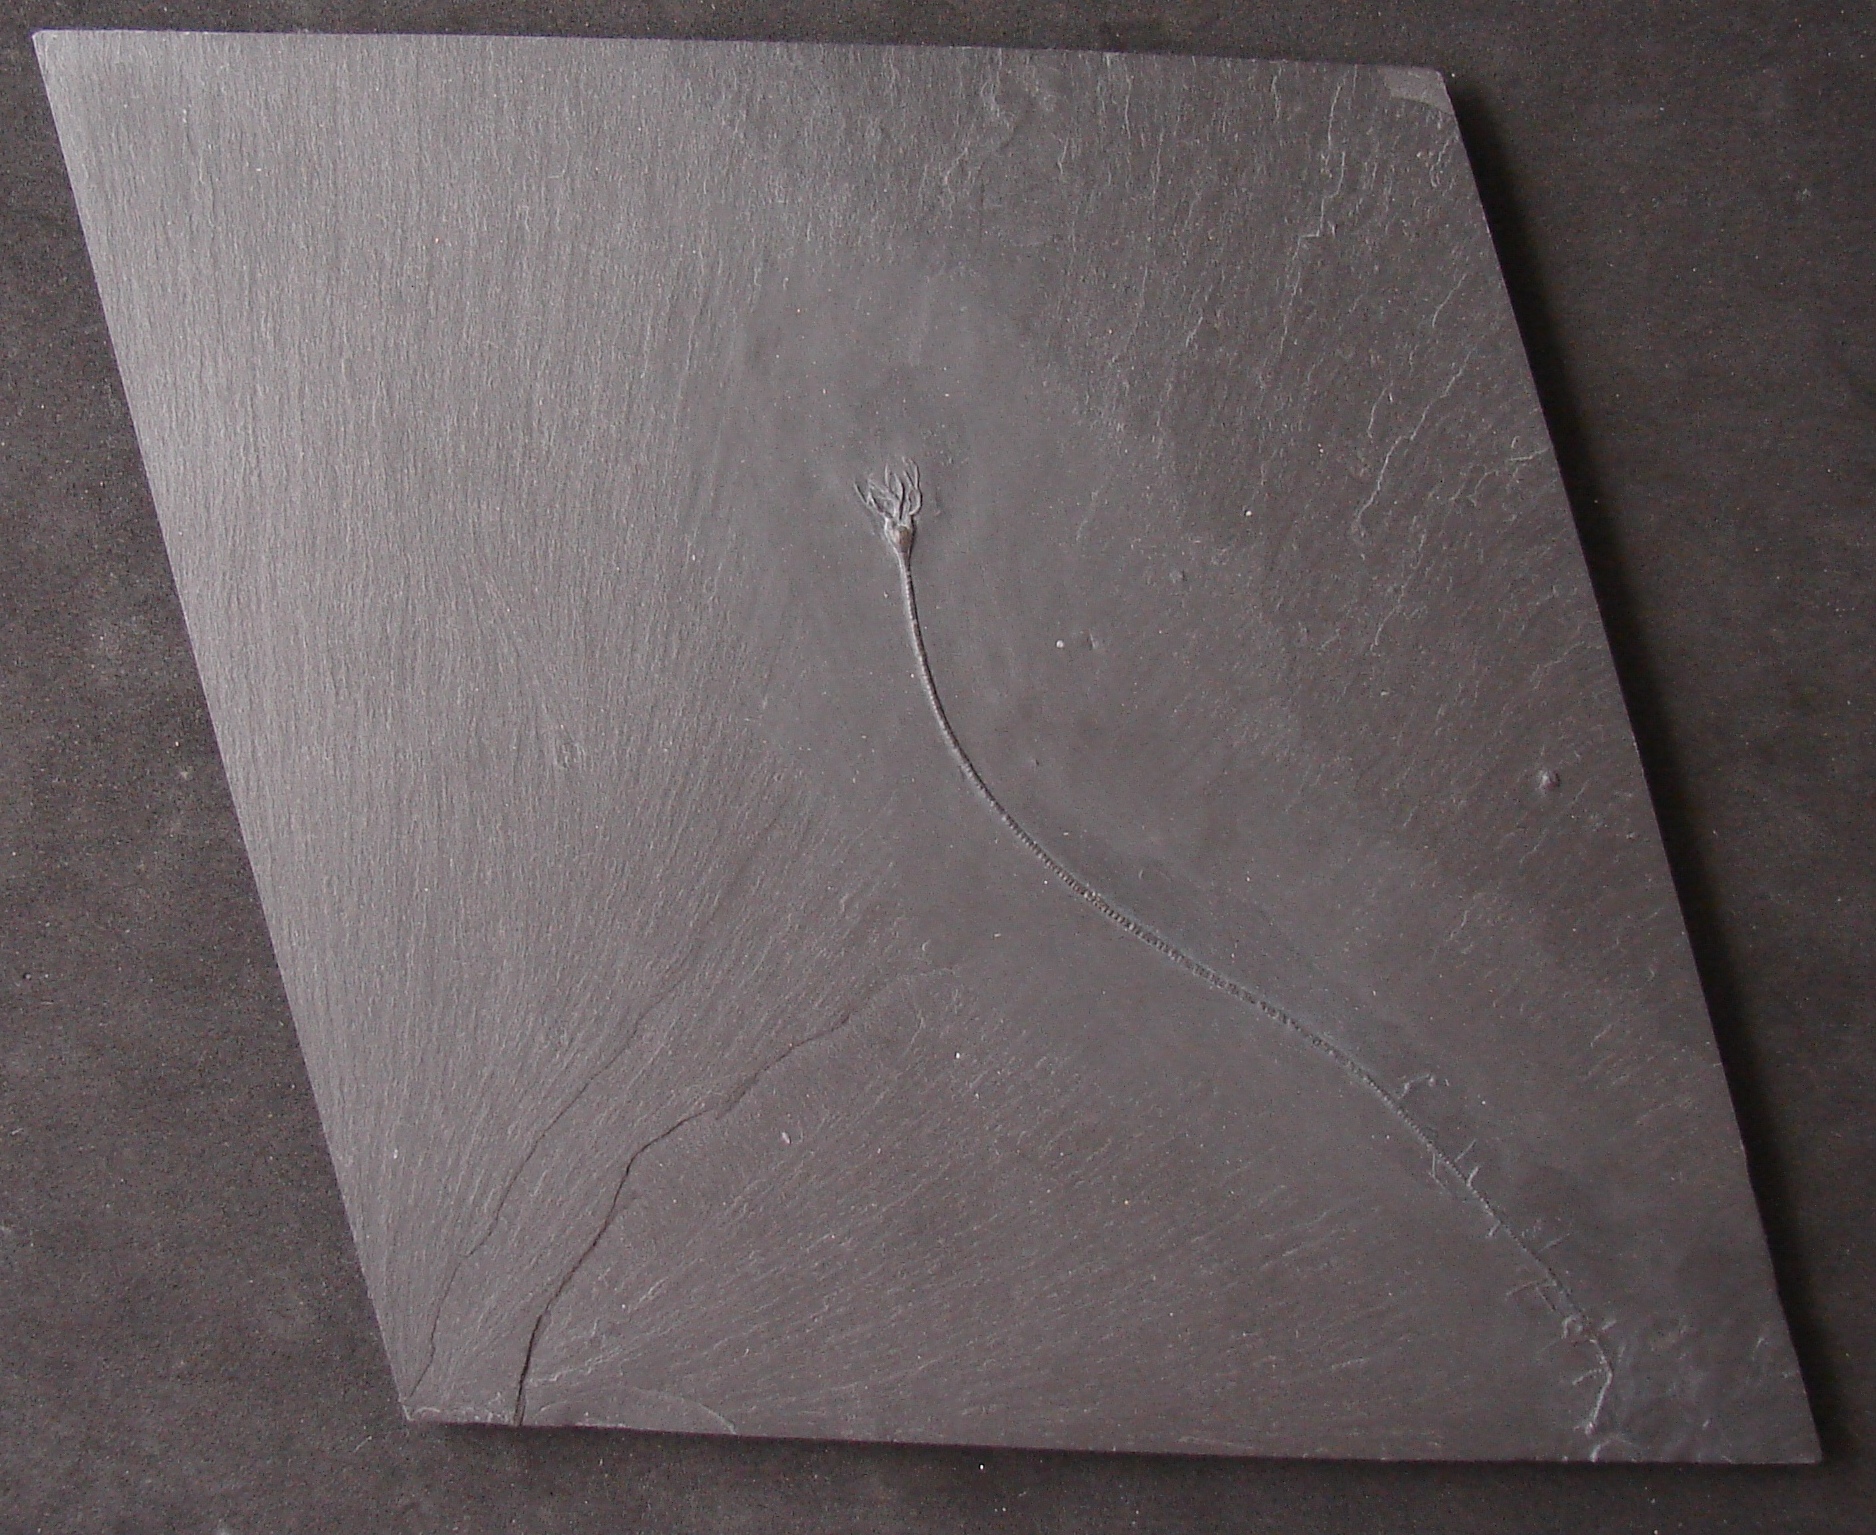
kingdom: Animalia
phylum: Echinodermata
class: Crinoidea
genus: Parisangulocrinus
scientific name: Parisangulocrinus
